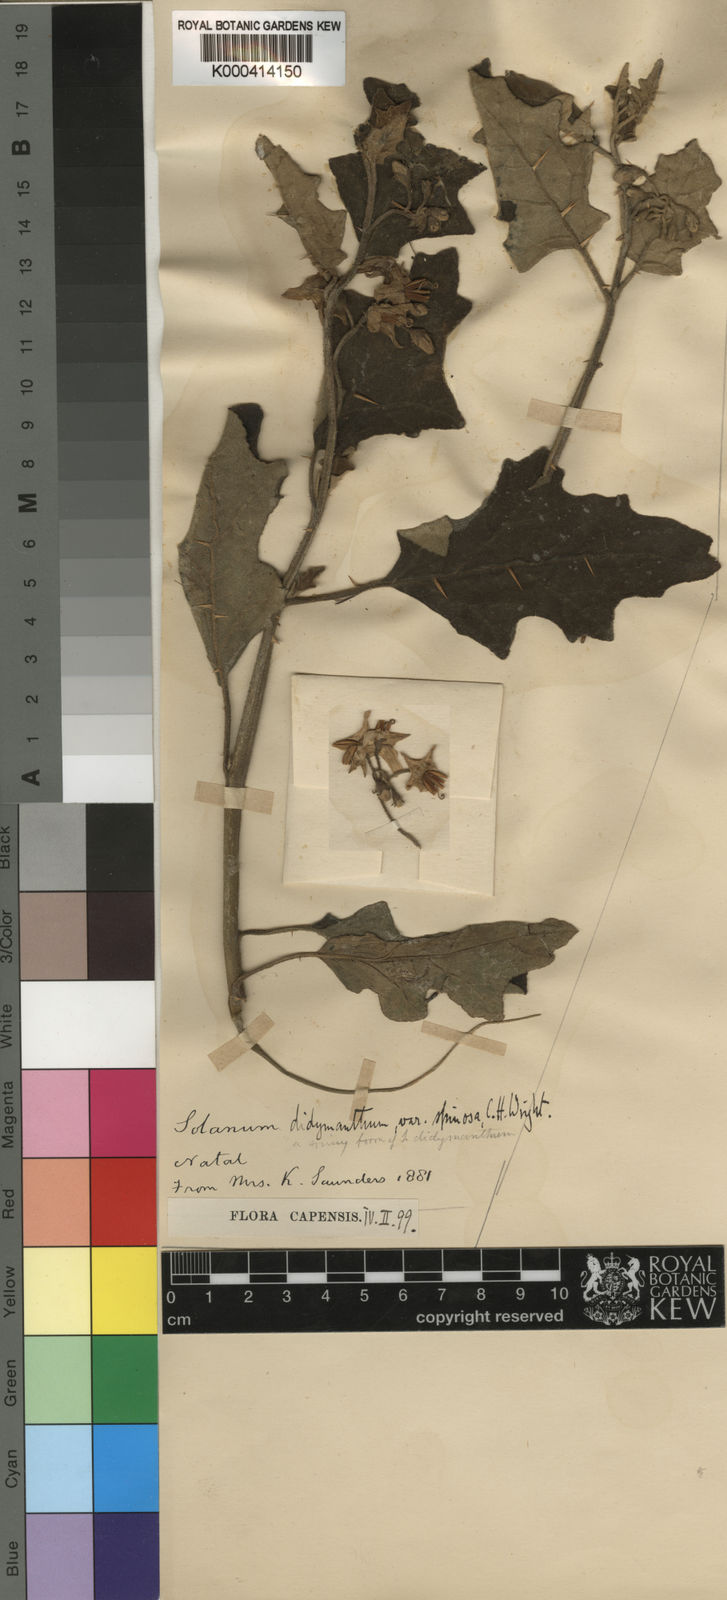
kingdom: Plantae
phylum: Tracheophyta
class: Magnoliopsida
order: Solanales
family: Solanaceae
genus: Solanum
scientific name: Solanum rubetorum
